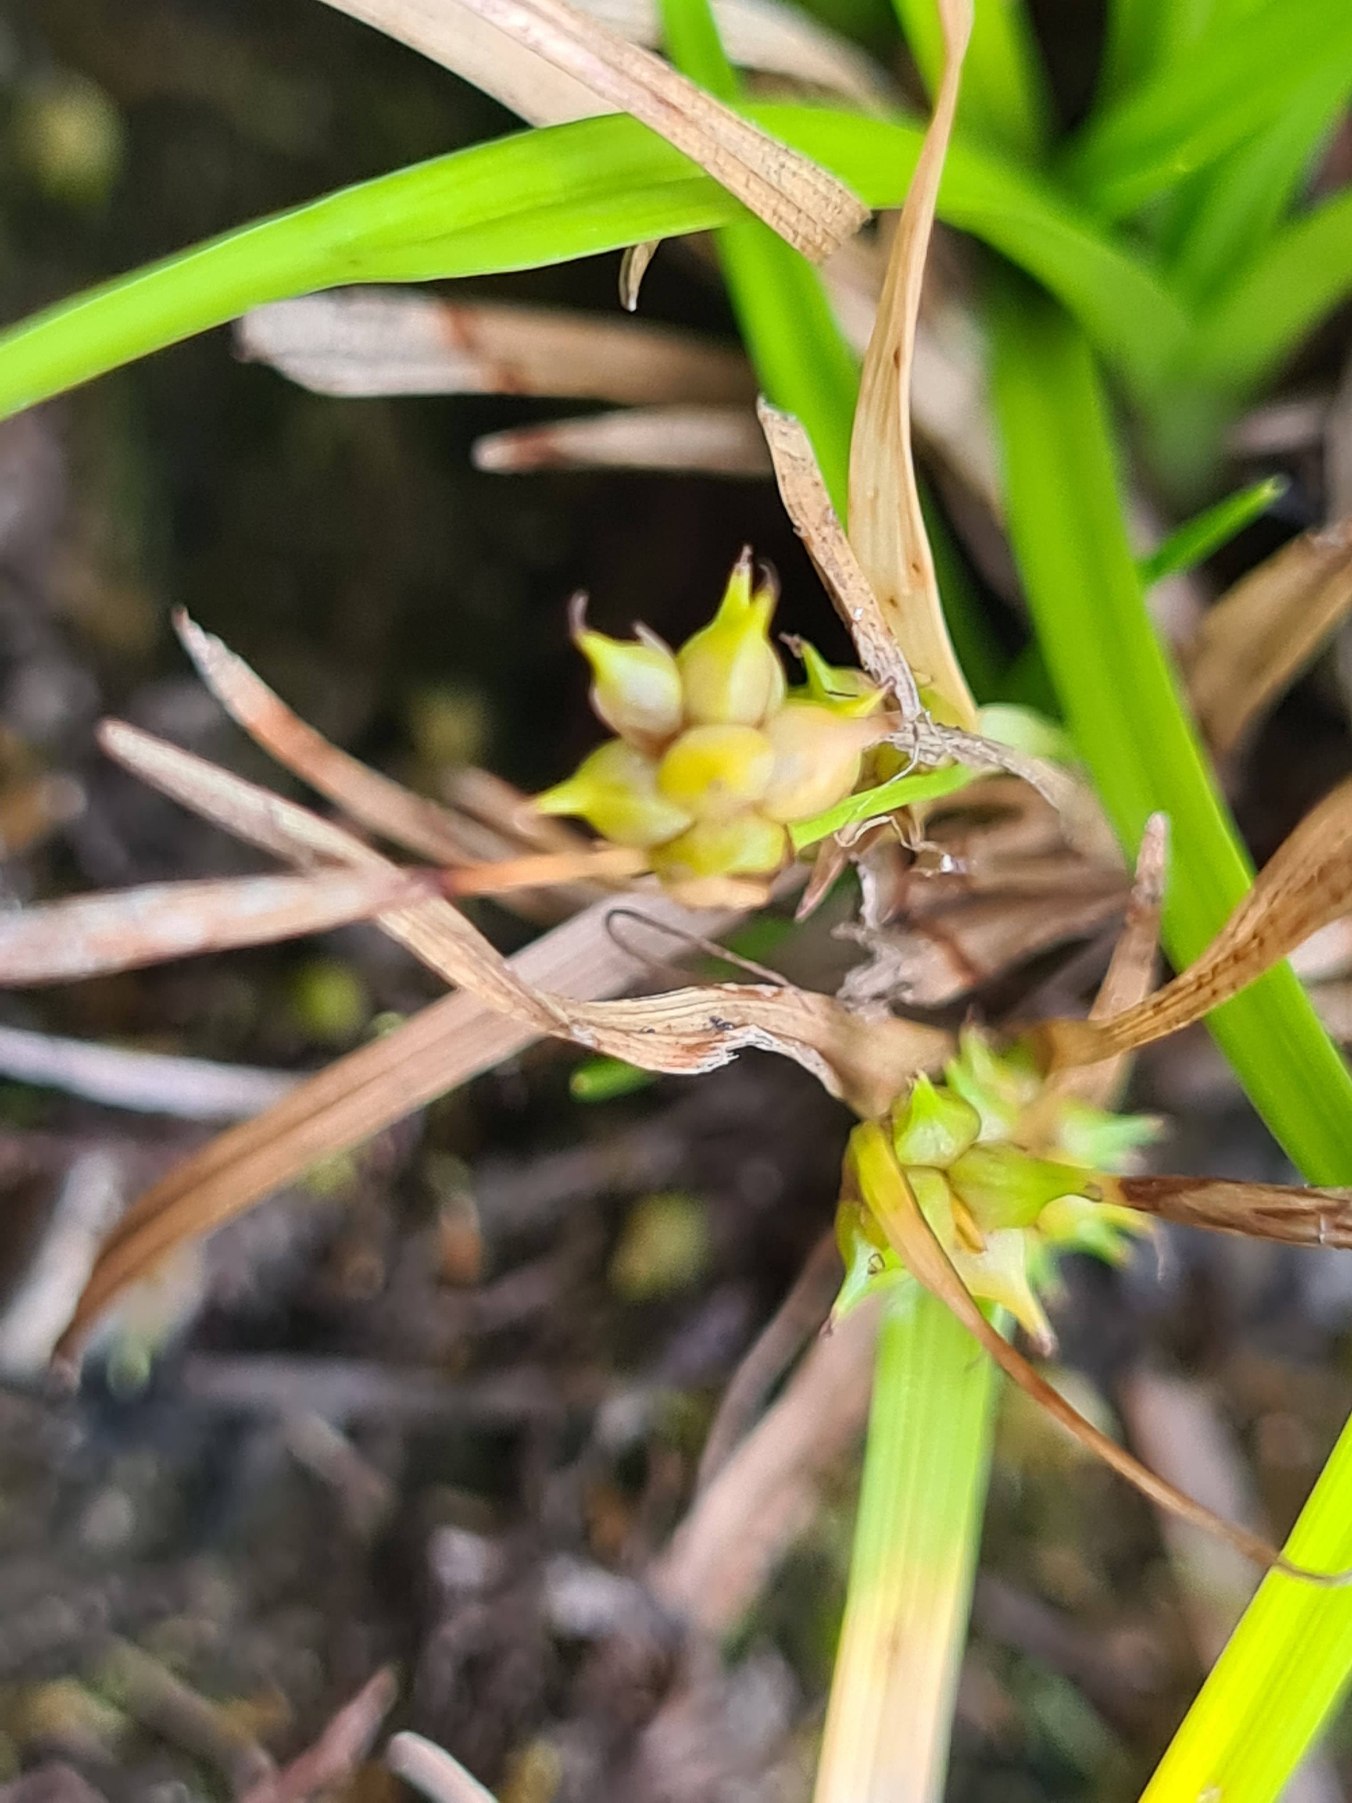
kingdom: Plantae
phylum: Tracheophyta
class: Liliopsida
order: Poales
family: Cyperaceae
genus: Carex
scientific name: Carex oederi
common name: Dværg-star
